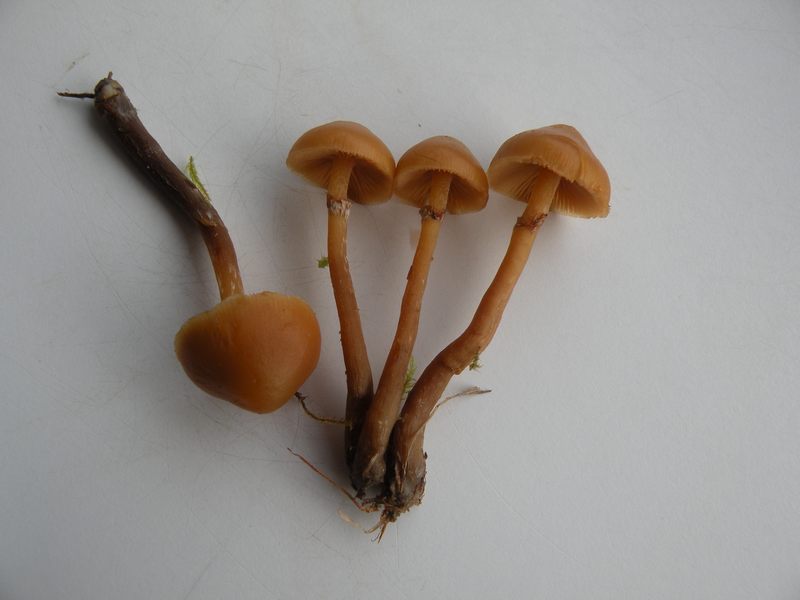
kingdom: Fungi
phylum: Basidiomycota
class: Agaricomycetes
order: Agaricales
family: Hymenogastraceae
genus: Galerina
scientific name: Galerina marginata
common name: randbæltet hjelmhat
